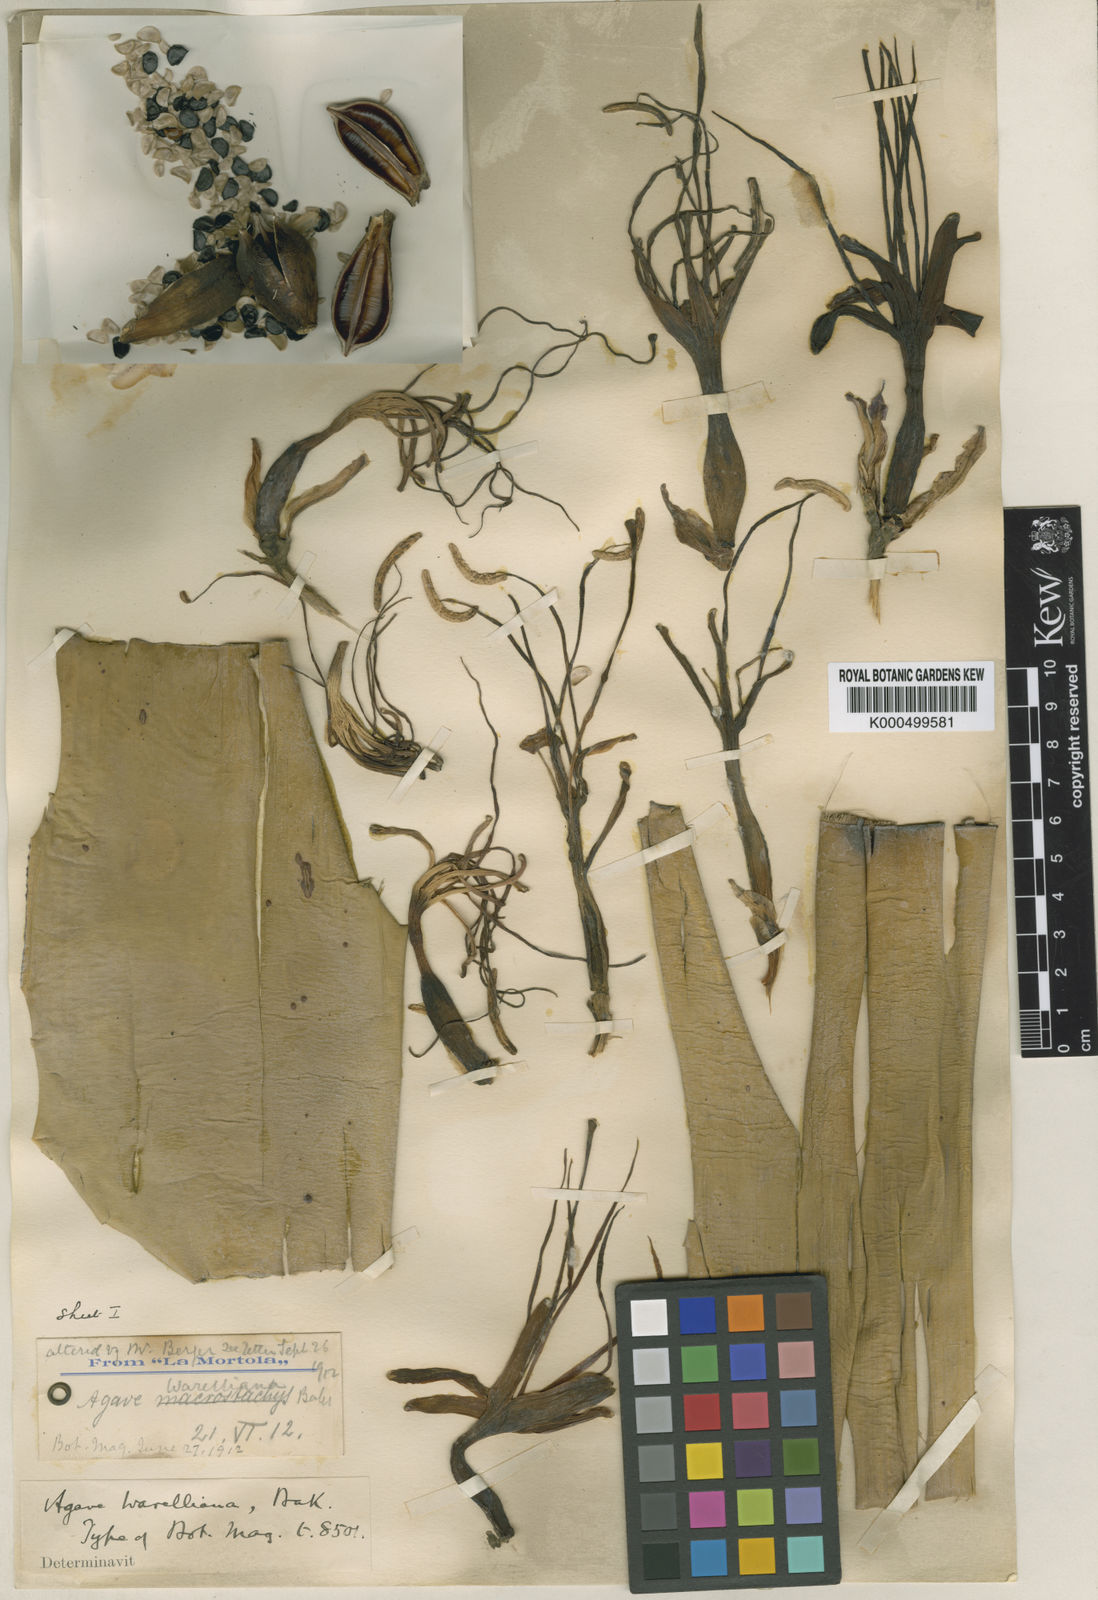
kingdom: Plantae
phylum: Tracheophyta
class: Liliopsida
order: Asparagales
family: Asparagaceae
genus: Agave
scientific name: Agave
